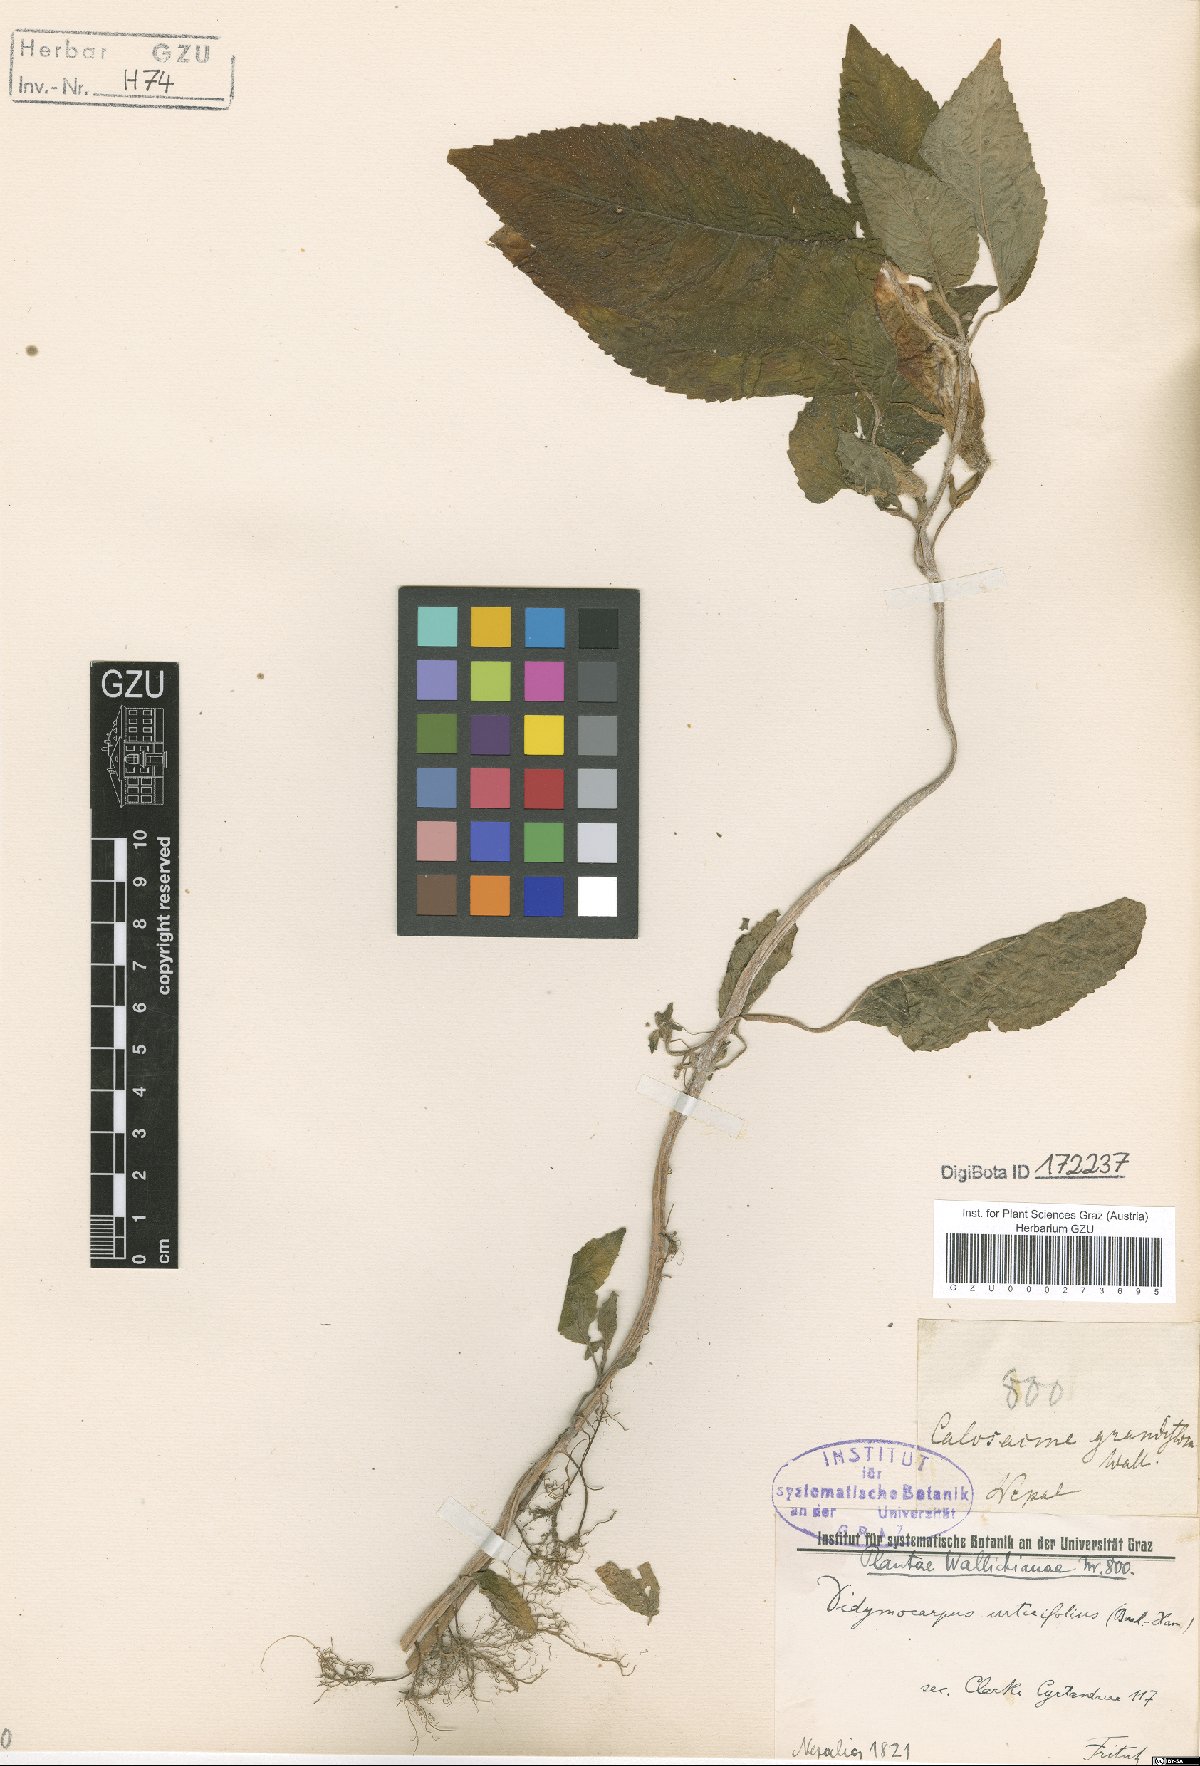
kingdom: Plantae
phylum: Tracheophyta
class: Magnoliopsida
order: Lamiales
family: Gesneriaceae
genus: Henckelia
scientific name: Henckelia urticifolia
